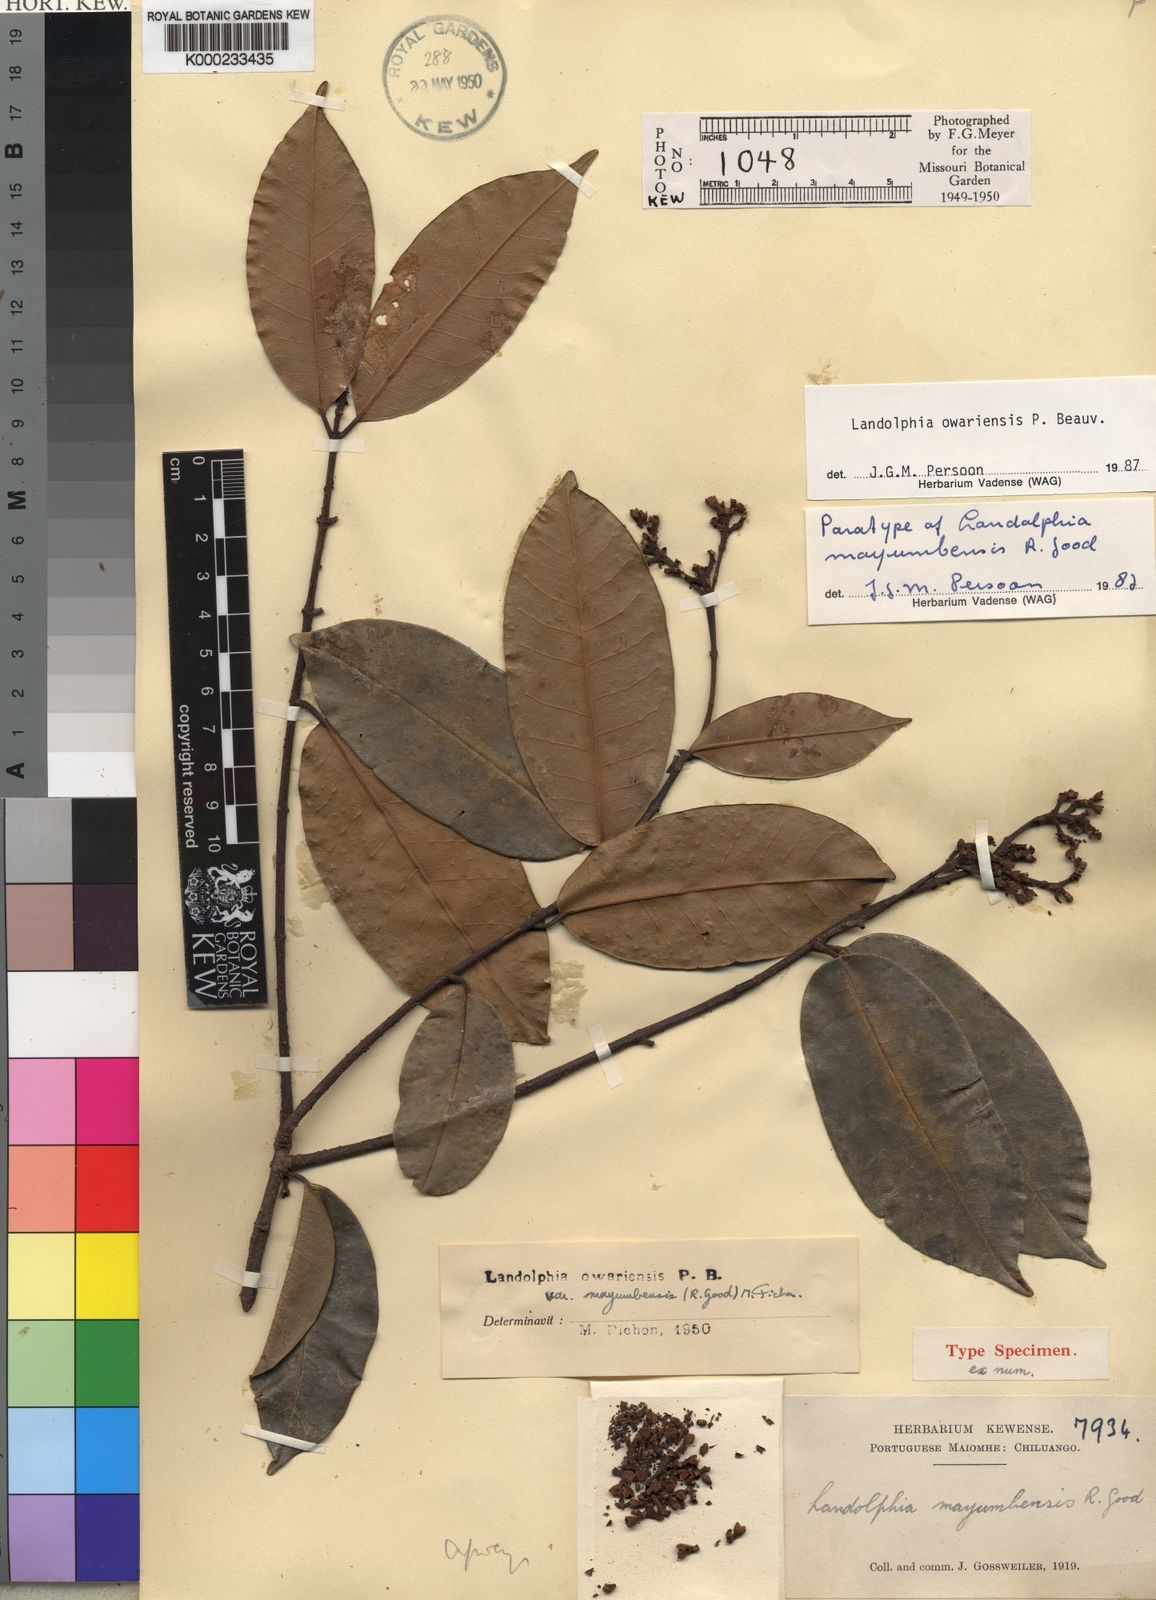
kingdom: Plantae
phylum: Tracheophyta
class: Magnoliopsida
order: Gentianales
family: Apocynaceae
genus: Landolphia
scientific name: Landolphia owariensis
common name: White-ball-rubber
